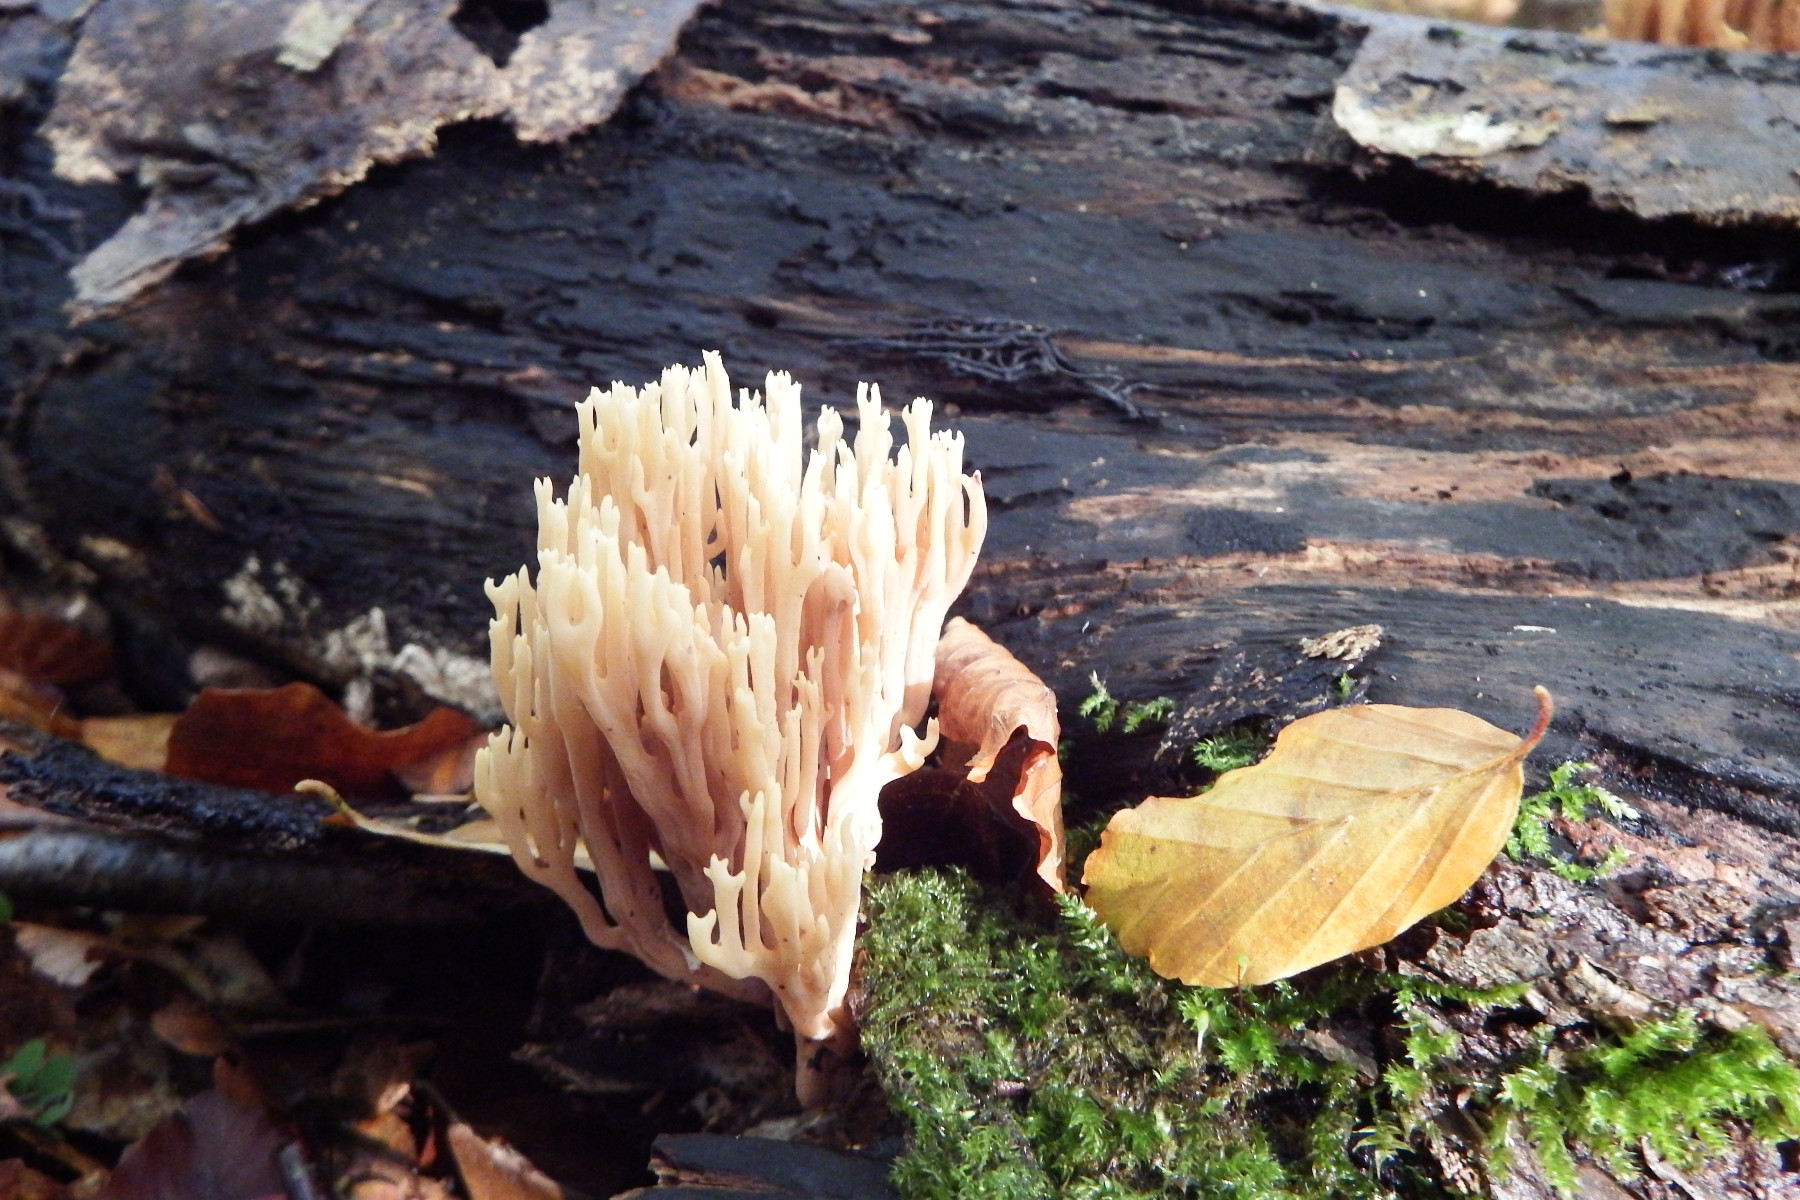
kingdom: Fungi
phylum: Basidiomycota
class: Agaricomycetes
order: Gomphales
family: Gomphaceae
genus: Ramaria
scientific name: Ramaria stricta
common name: rank koralsvamp
